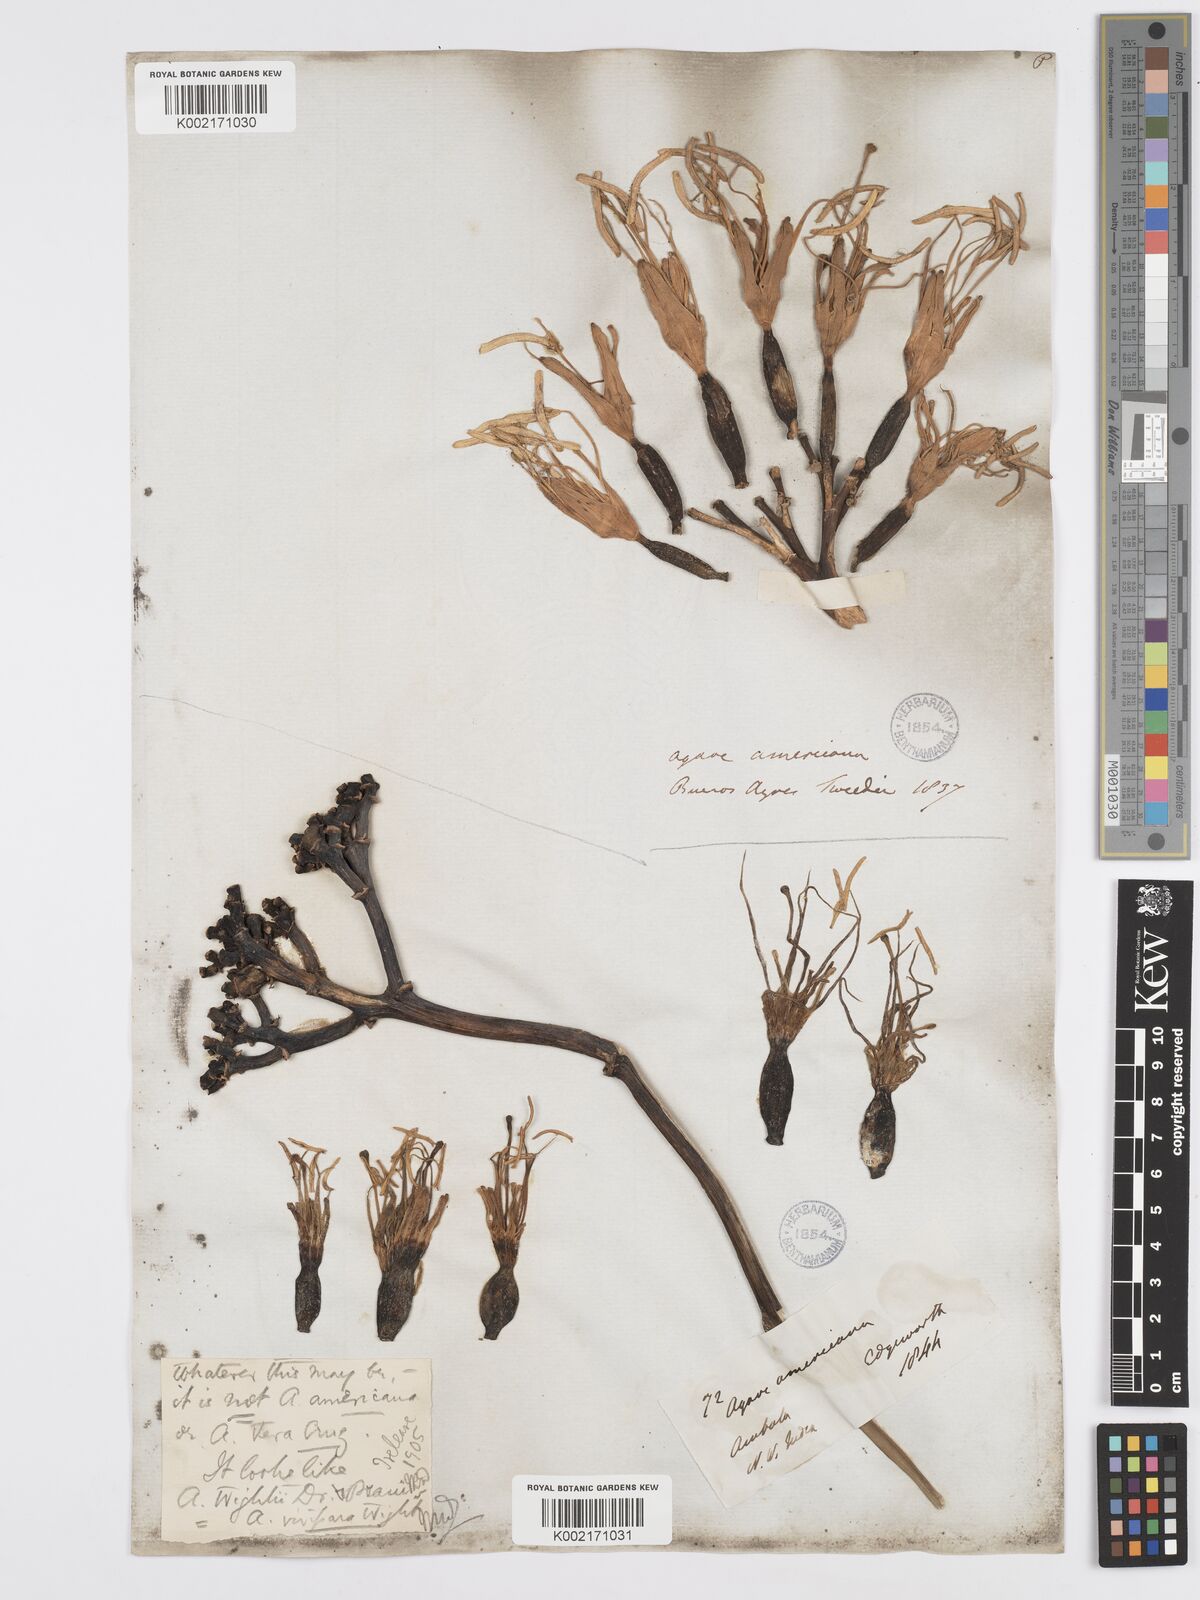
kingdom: Plantae
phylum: Tracheophyta
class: Liliopsida
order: Asparagales
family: Asparagaceae
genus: Agave
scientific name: Agave americana
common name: Centuryplant
